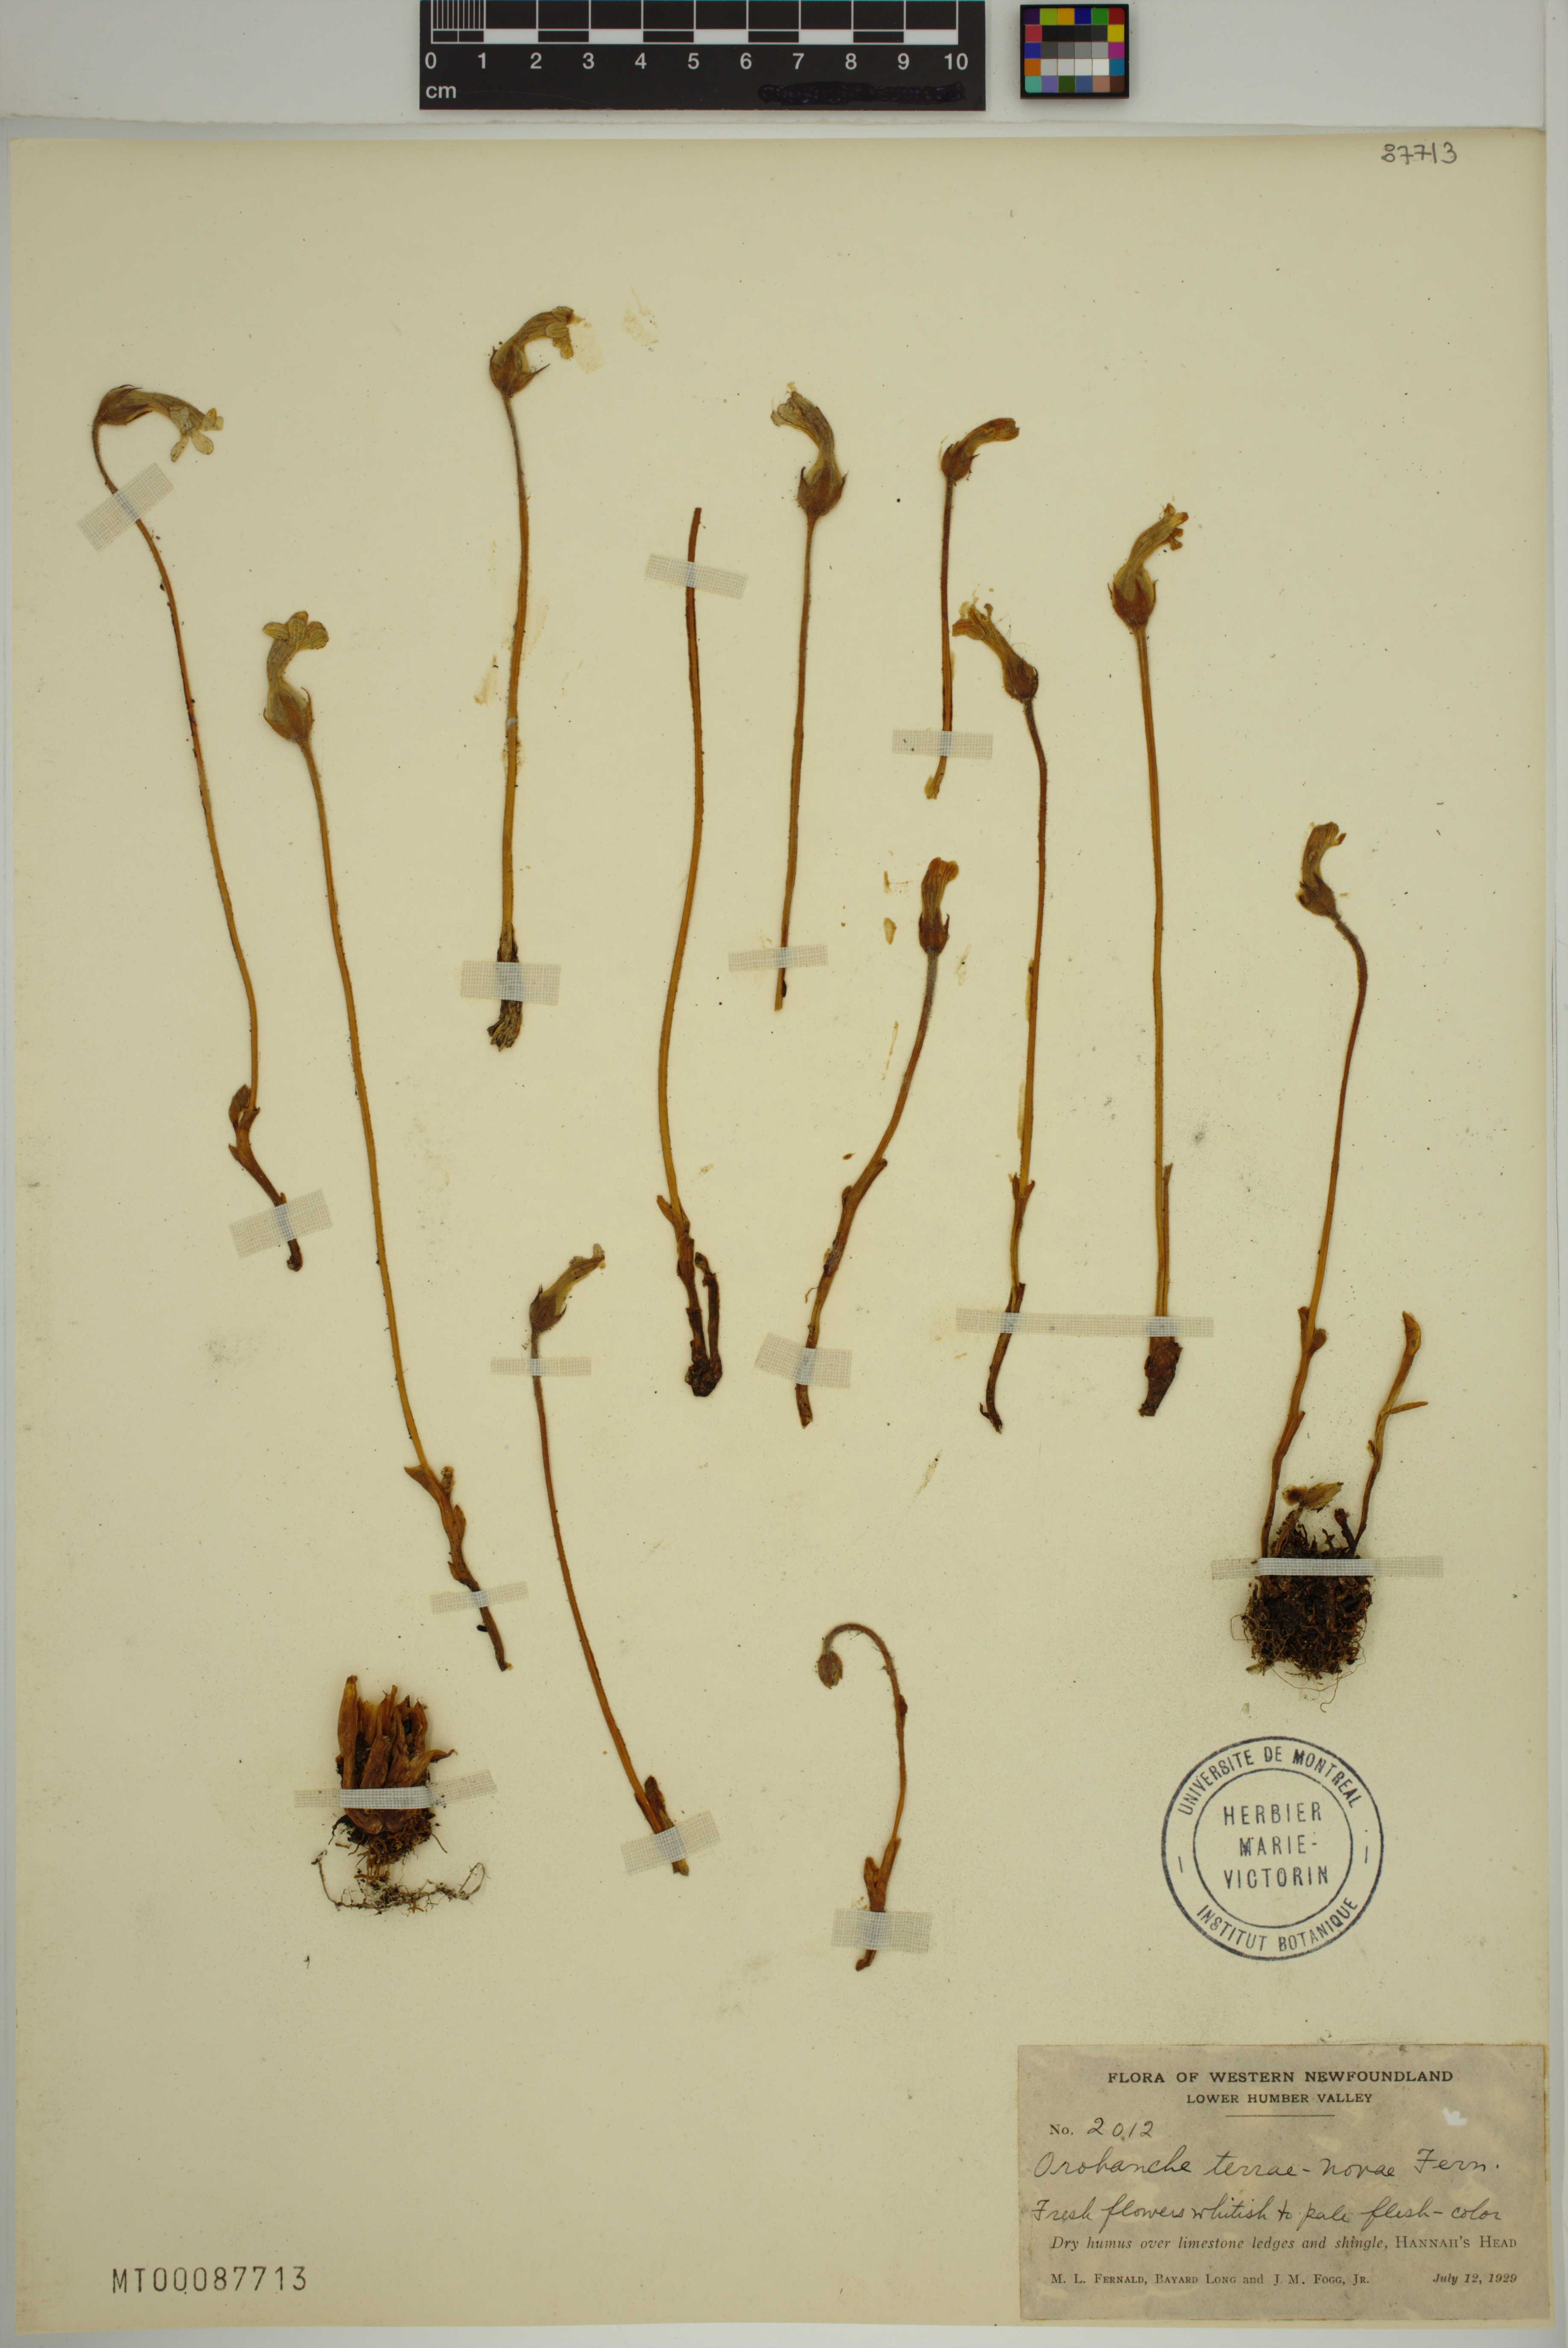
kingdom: Plantae
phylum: Tracheophyta
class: Magnoliopsida
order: Lamiales
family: Orobanchaceae
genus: Aphyllon
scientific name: Aphyllon uniflorum
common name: One-flowered broomrape
